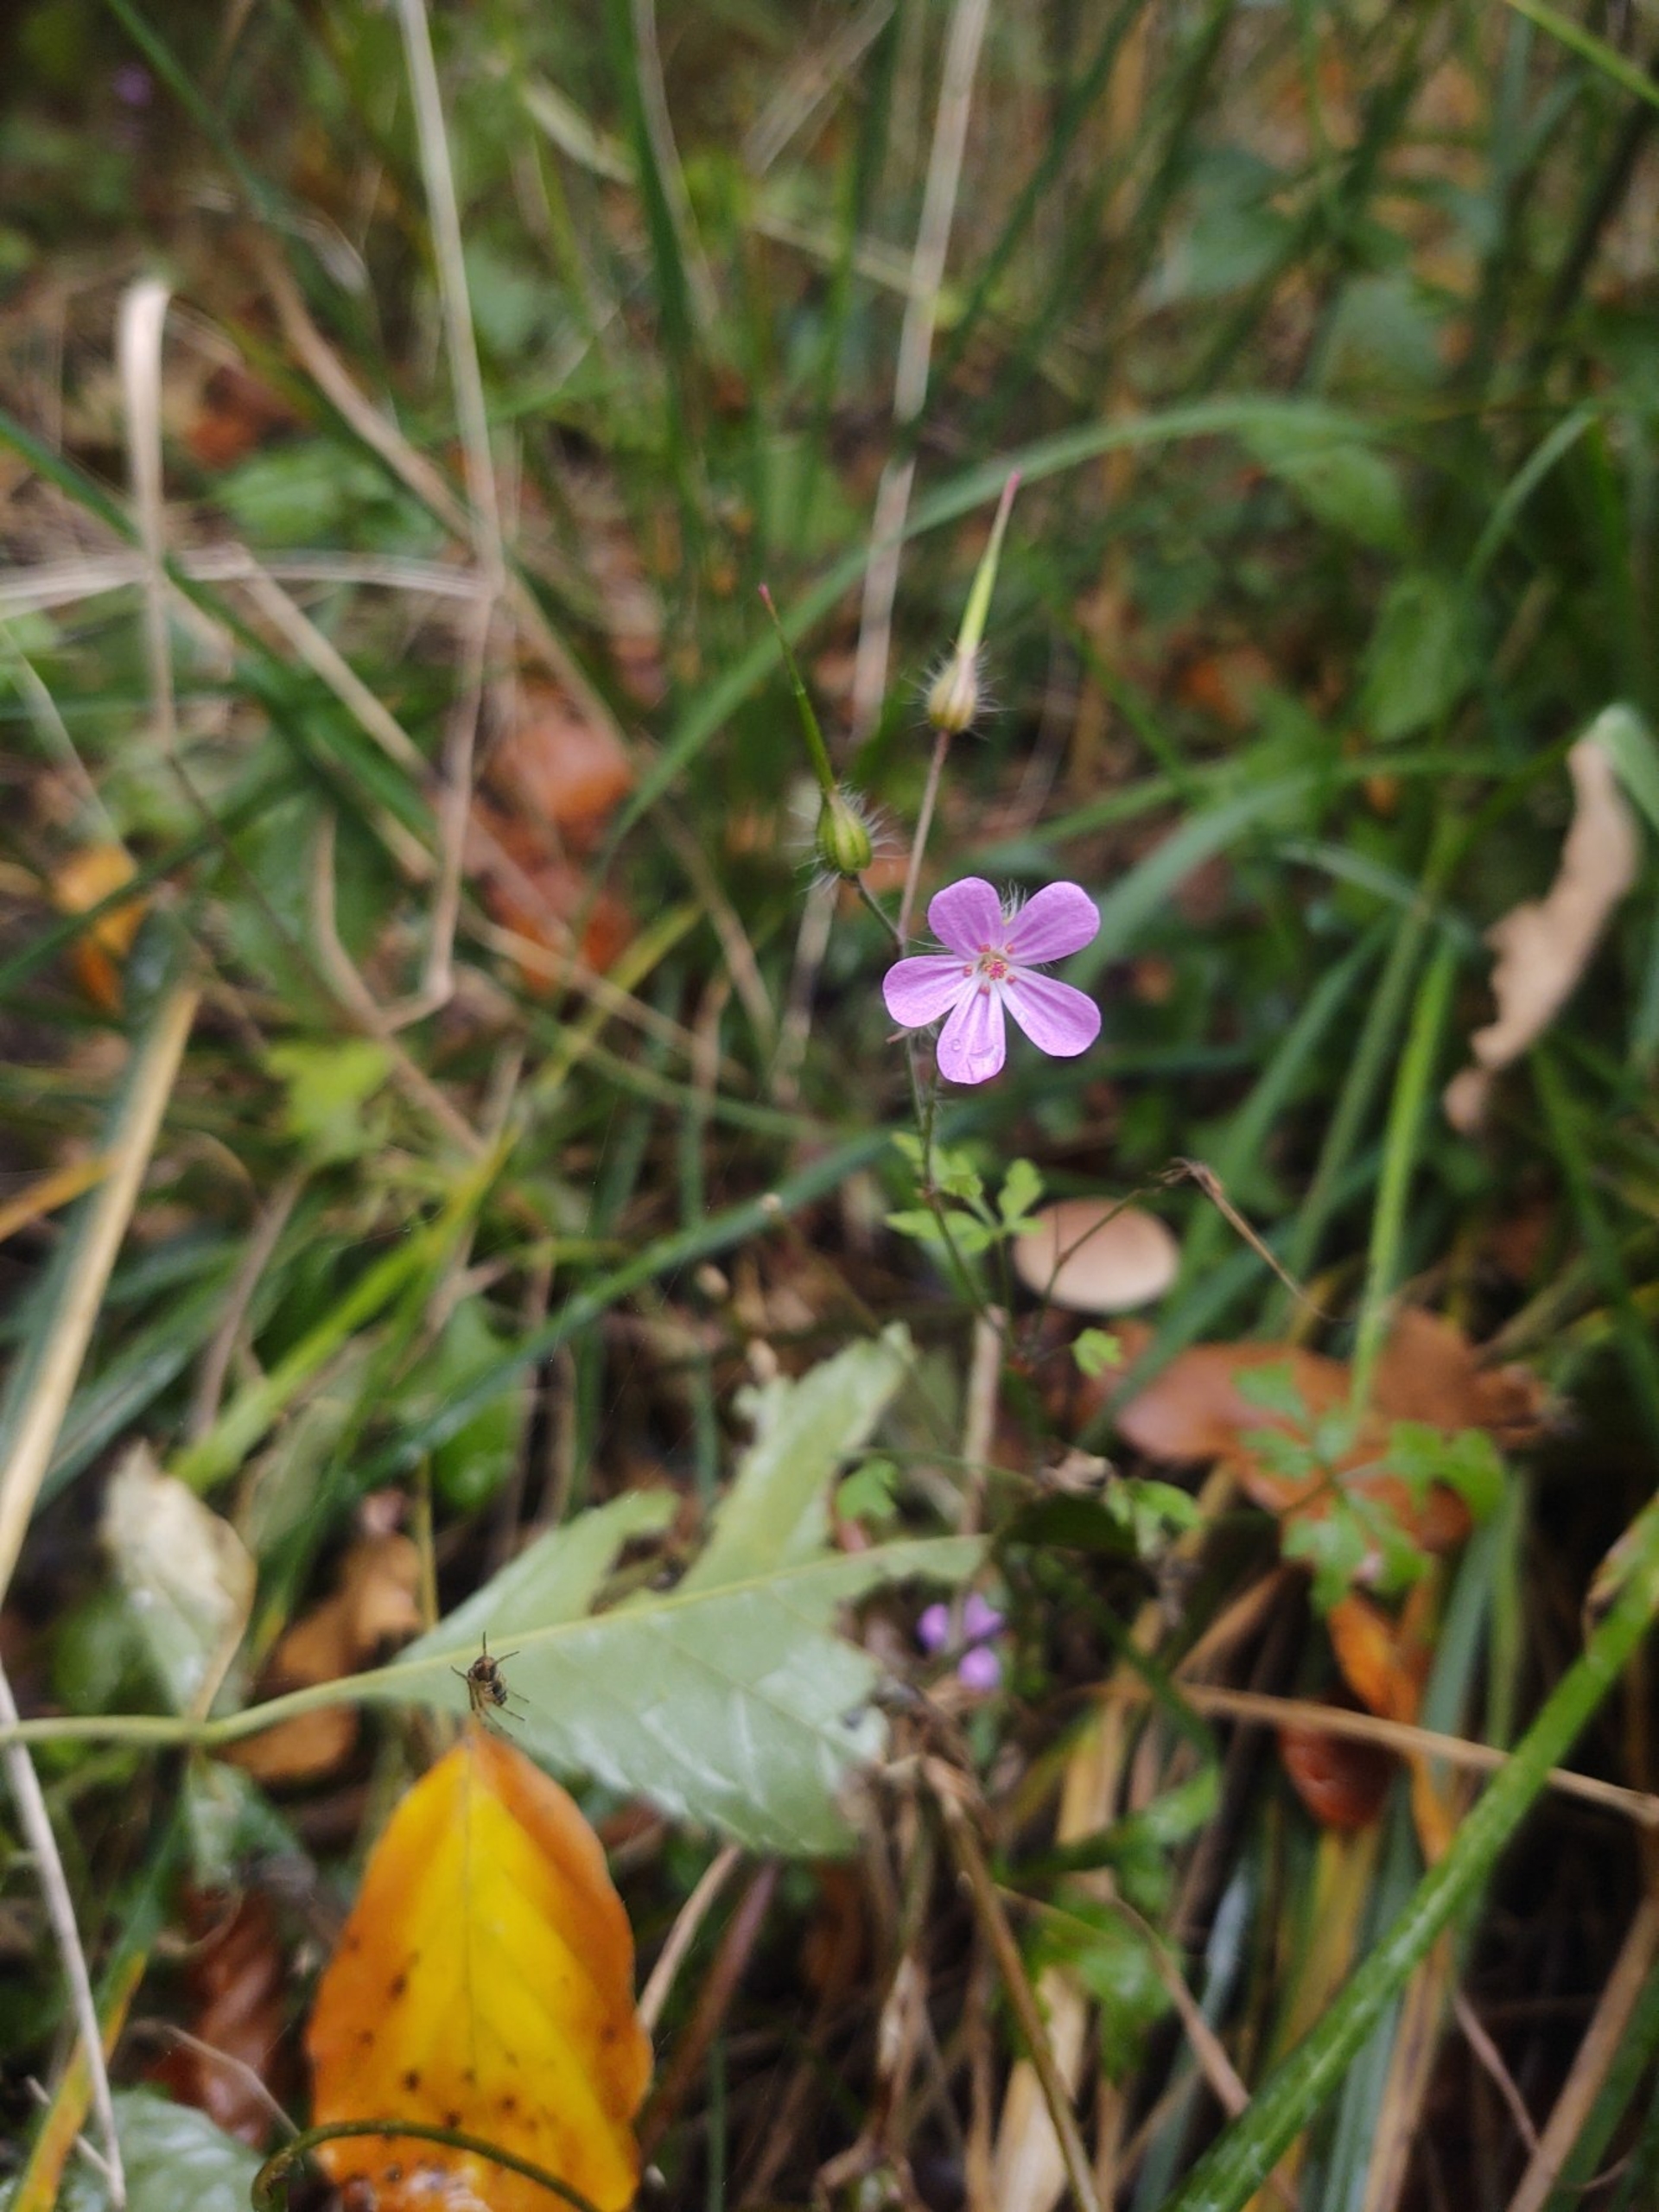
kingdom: Plantae
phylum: Tracheophyta
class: Magnoliopsida
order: Geraniales
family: Geraniaceae
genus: Geranium
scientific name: Geranium robertianum
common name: Stinkende storkenæb
